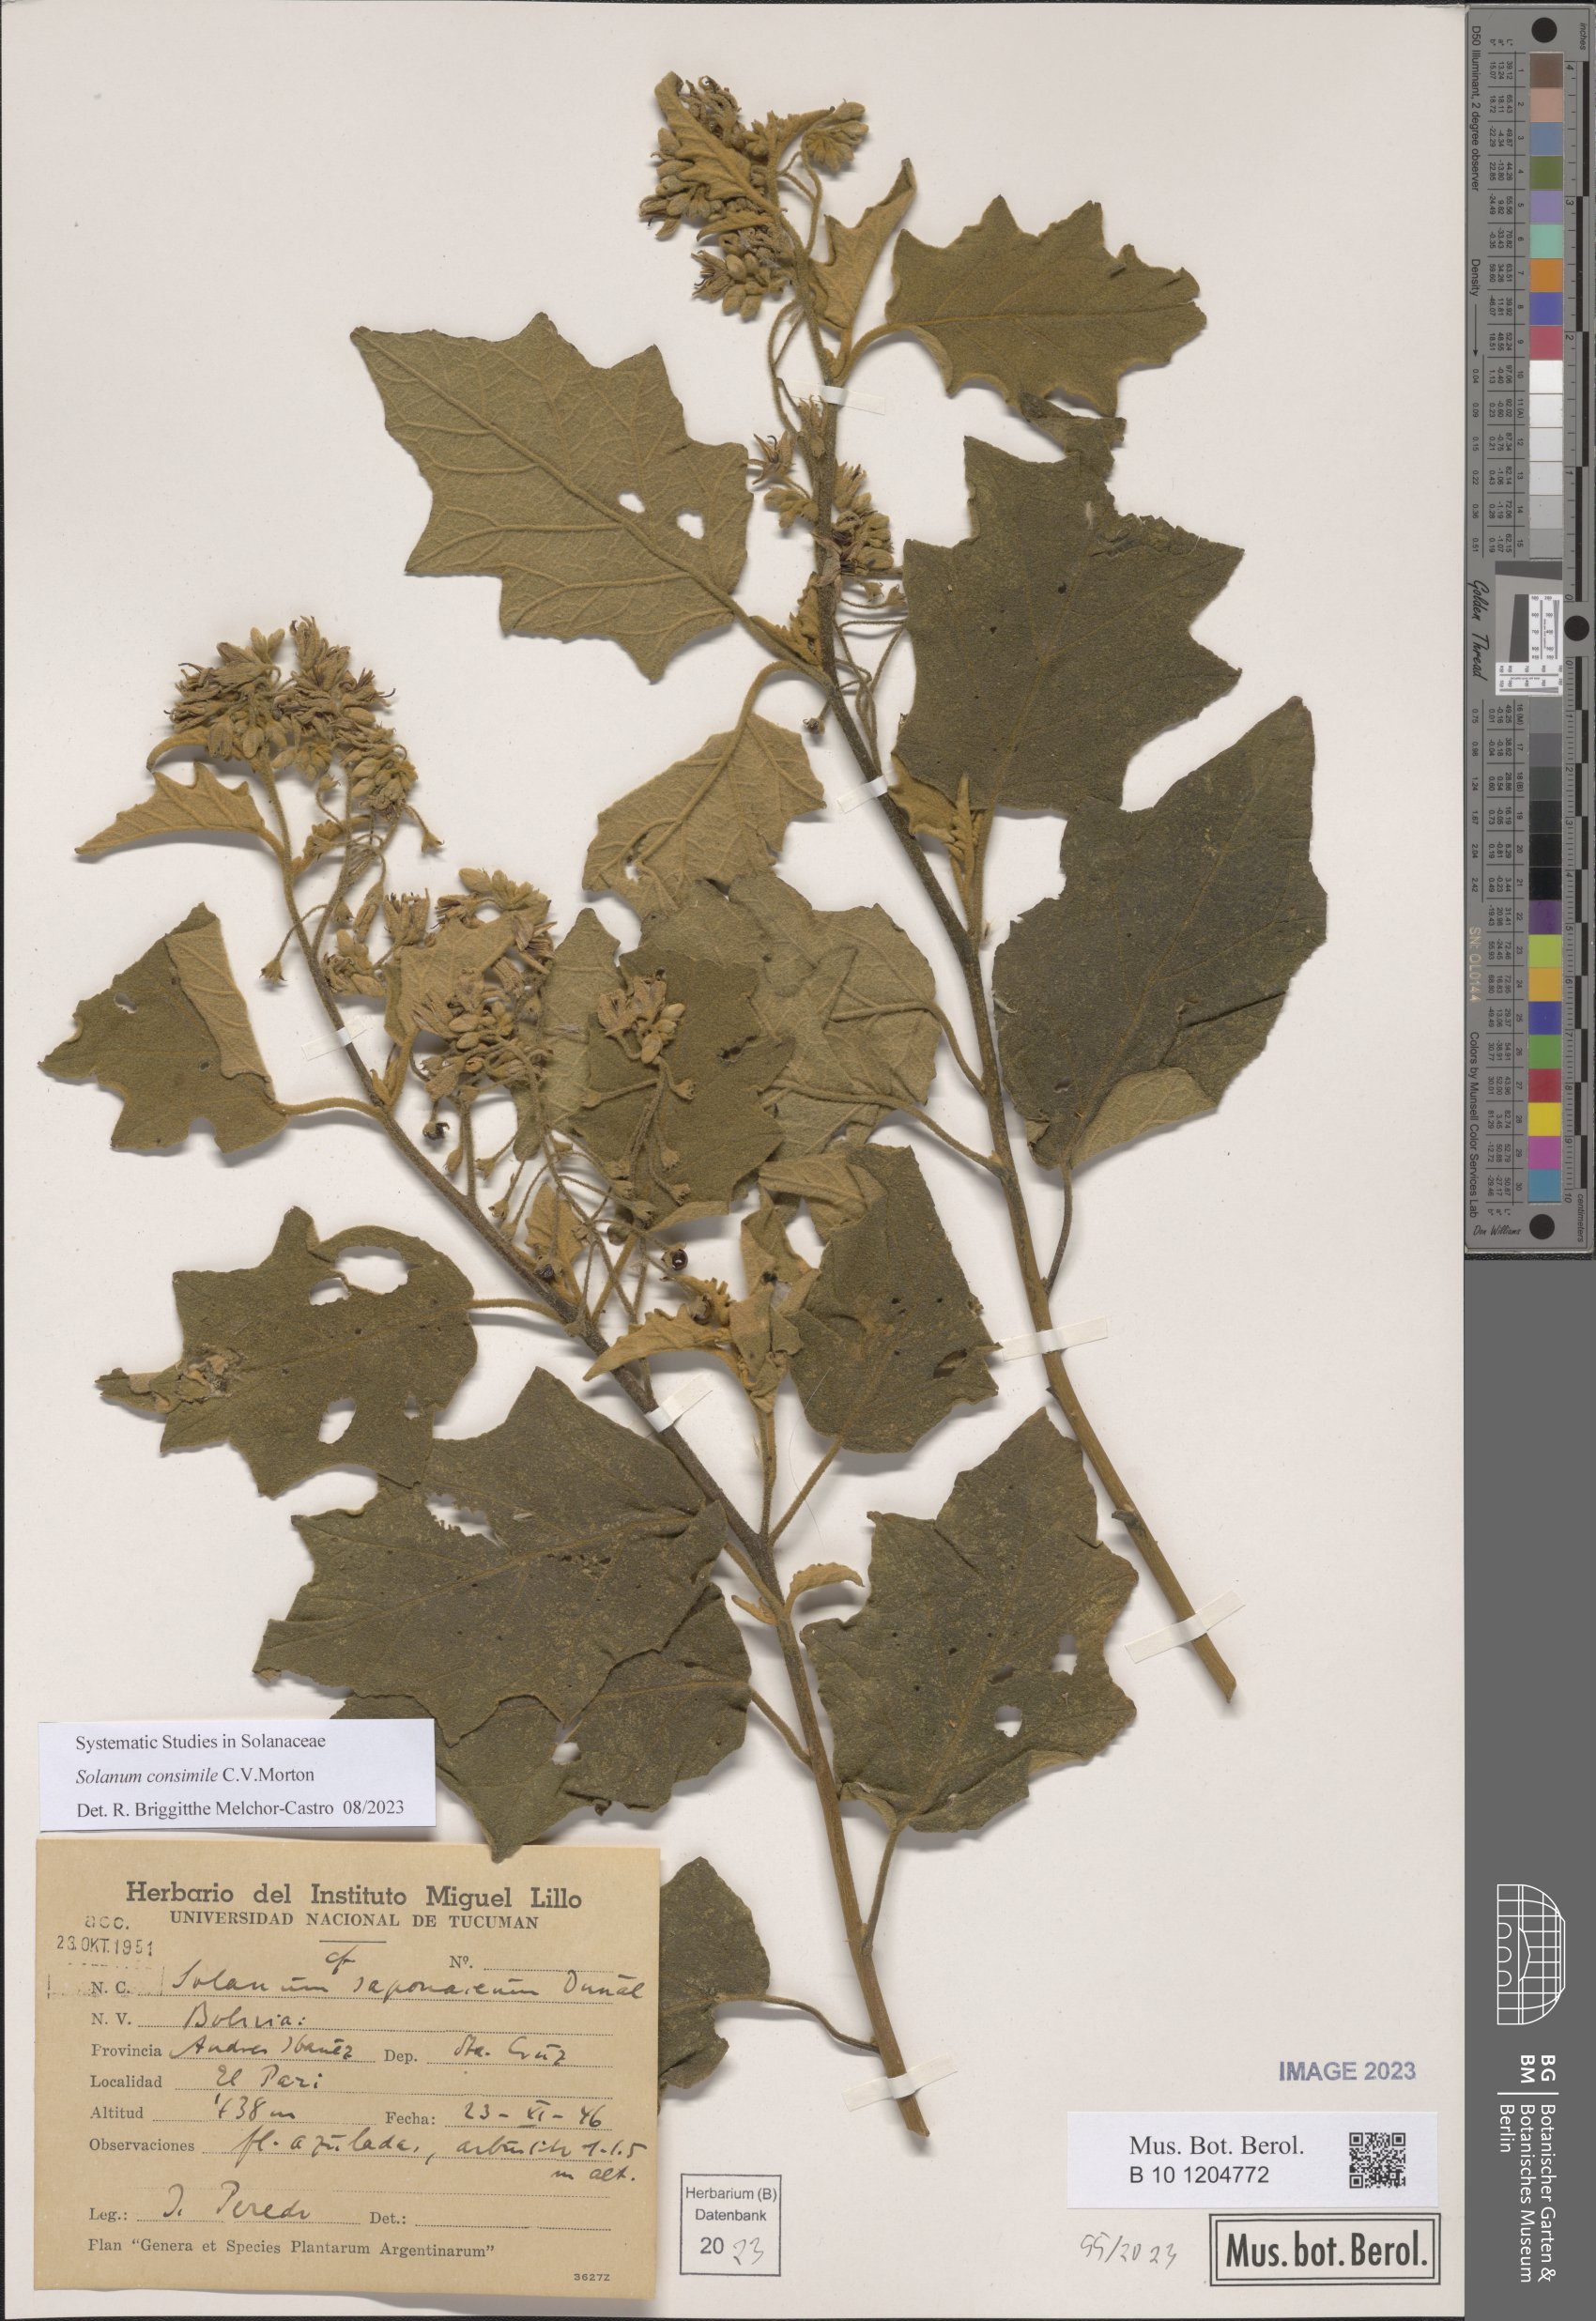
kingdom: Plantae
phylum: Tracheophyta
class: Magnoliopsida
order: Solanales
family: Solanaceae
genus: Solanum
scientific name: Solanum consimile
